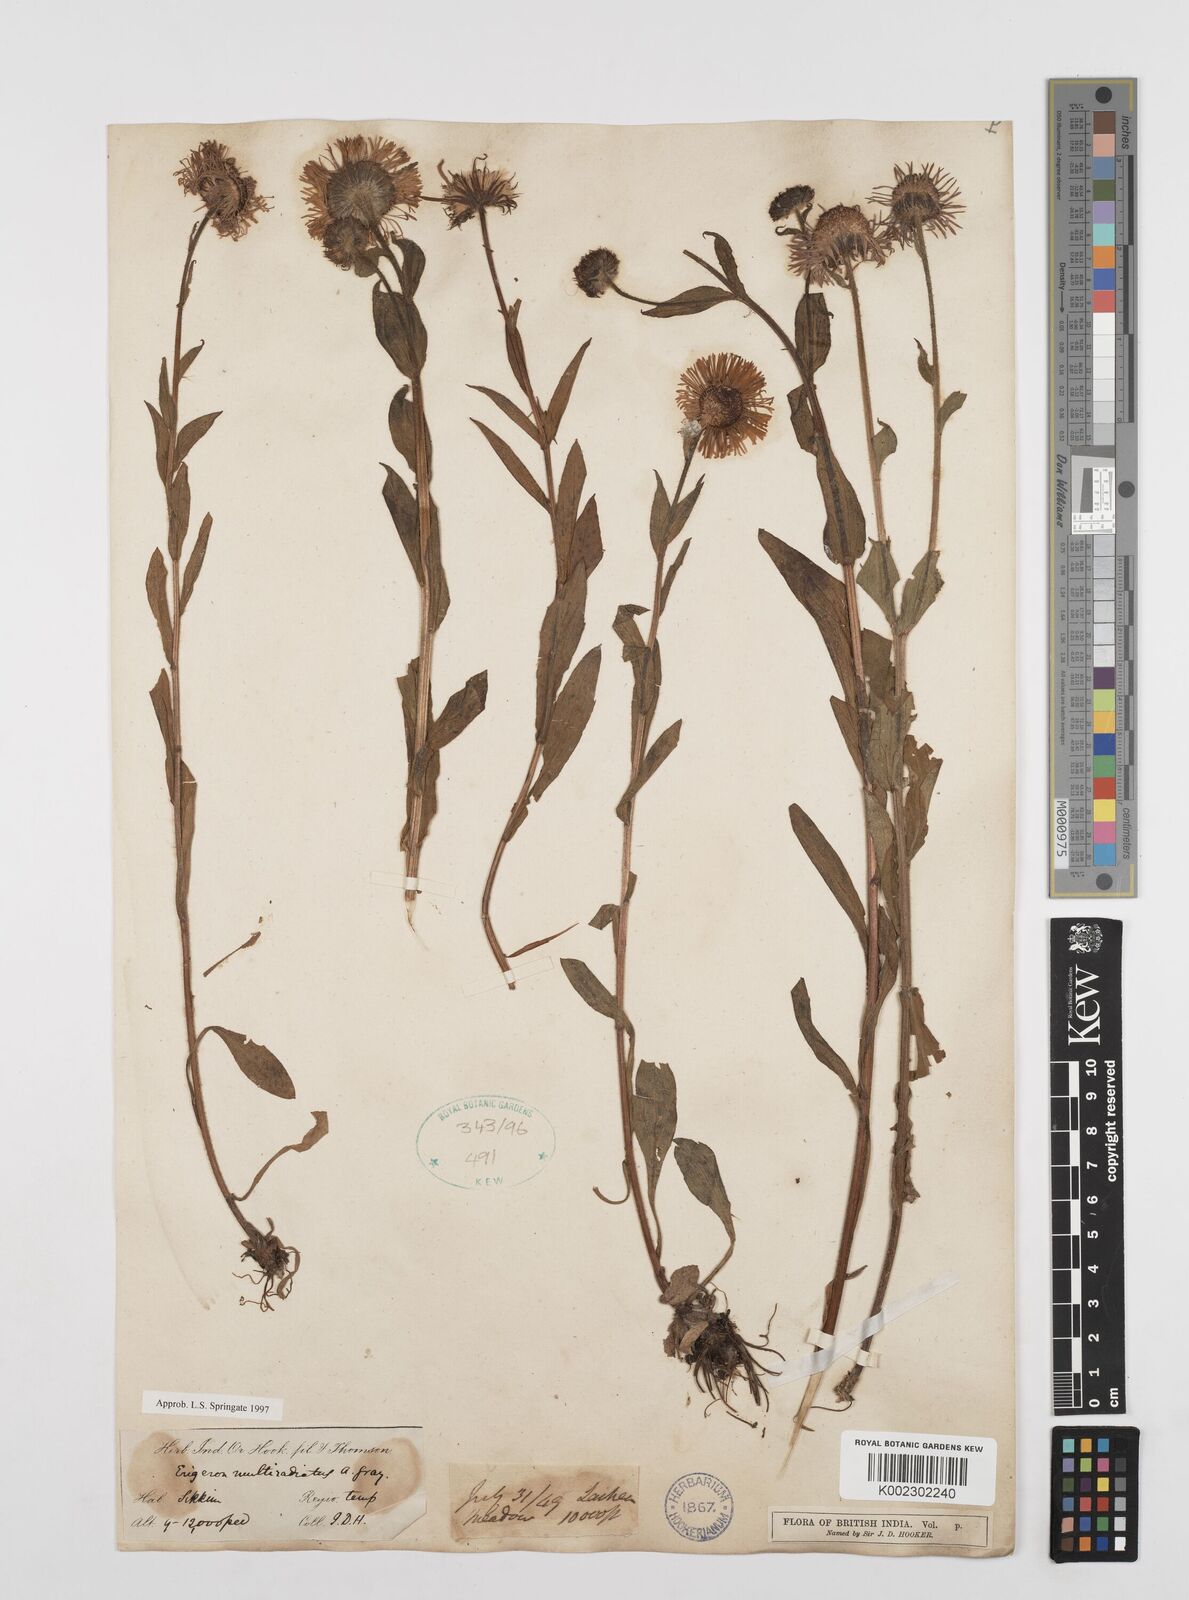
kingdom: Plantae
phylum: Tracheophyta
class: Magnoliopsida
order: Asterales
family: Asteraceae
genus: Erigeron
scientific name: Erigeron multiradiatus
